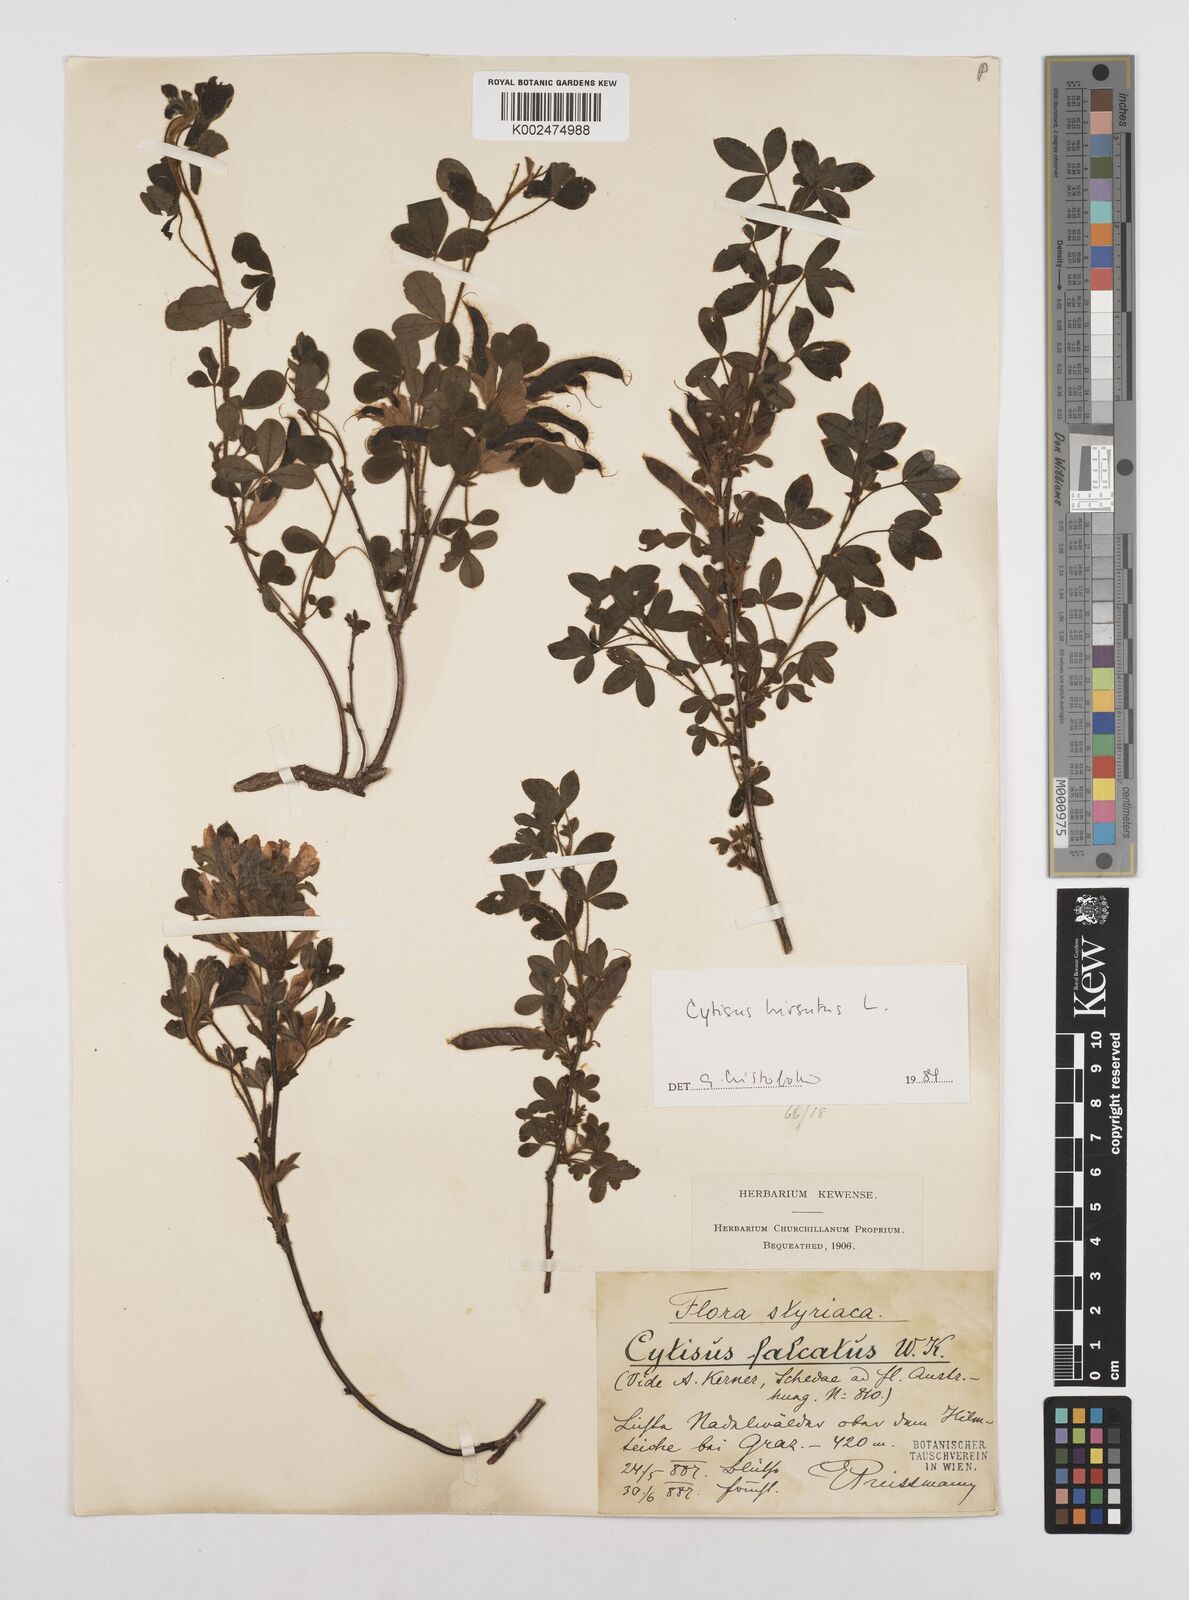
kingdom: Plantae
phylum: Tracheophyta
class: Magnoliopsida
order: Fabales
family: Fabaceae
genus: Chamaecytisus
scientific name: Chamaecytisus hirsutus
